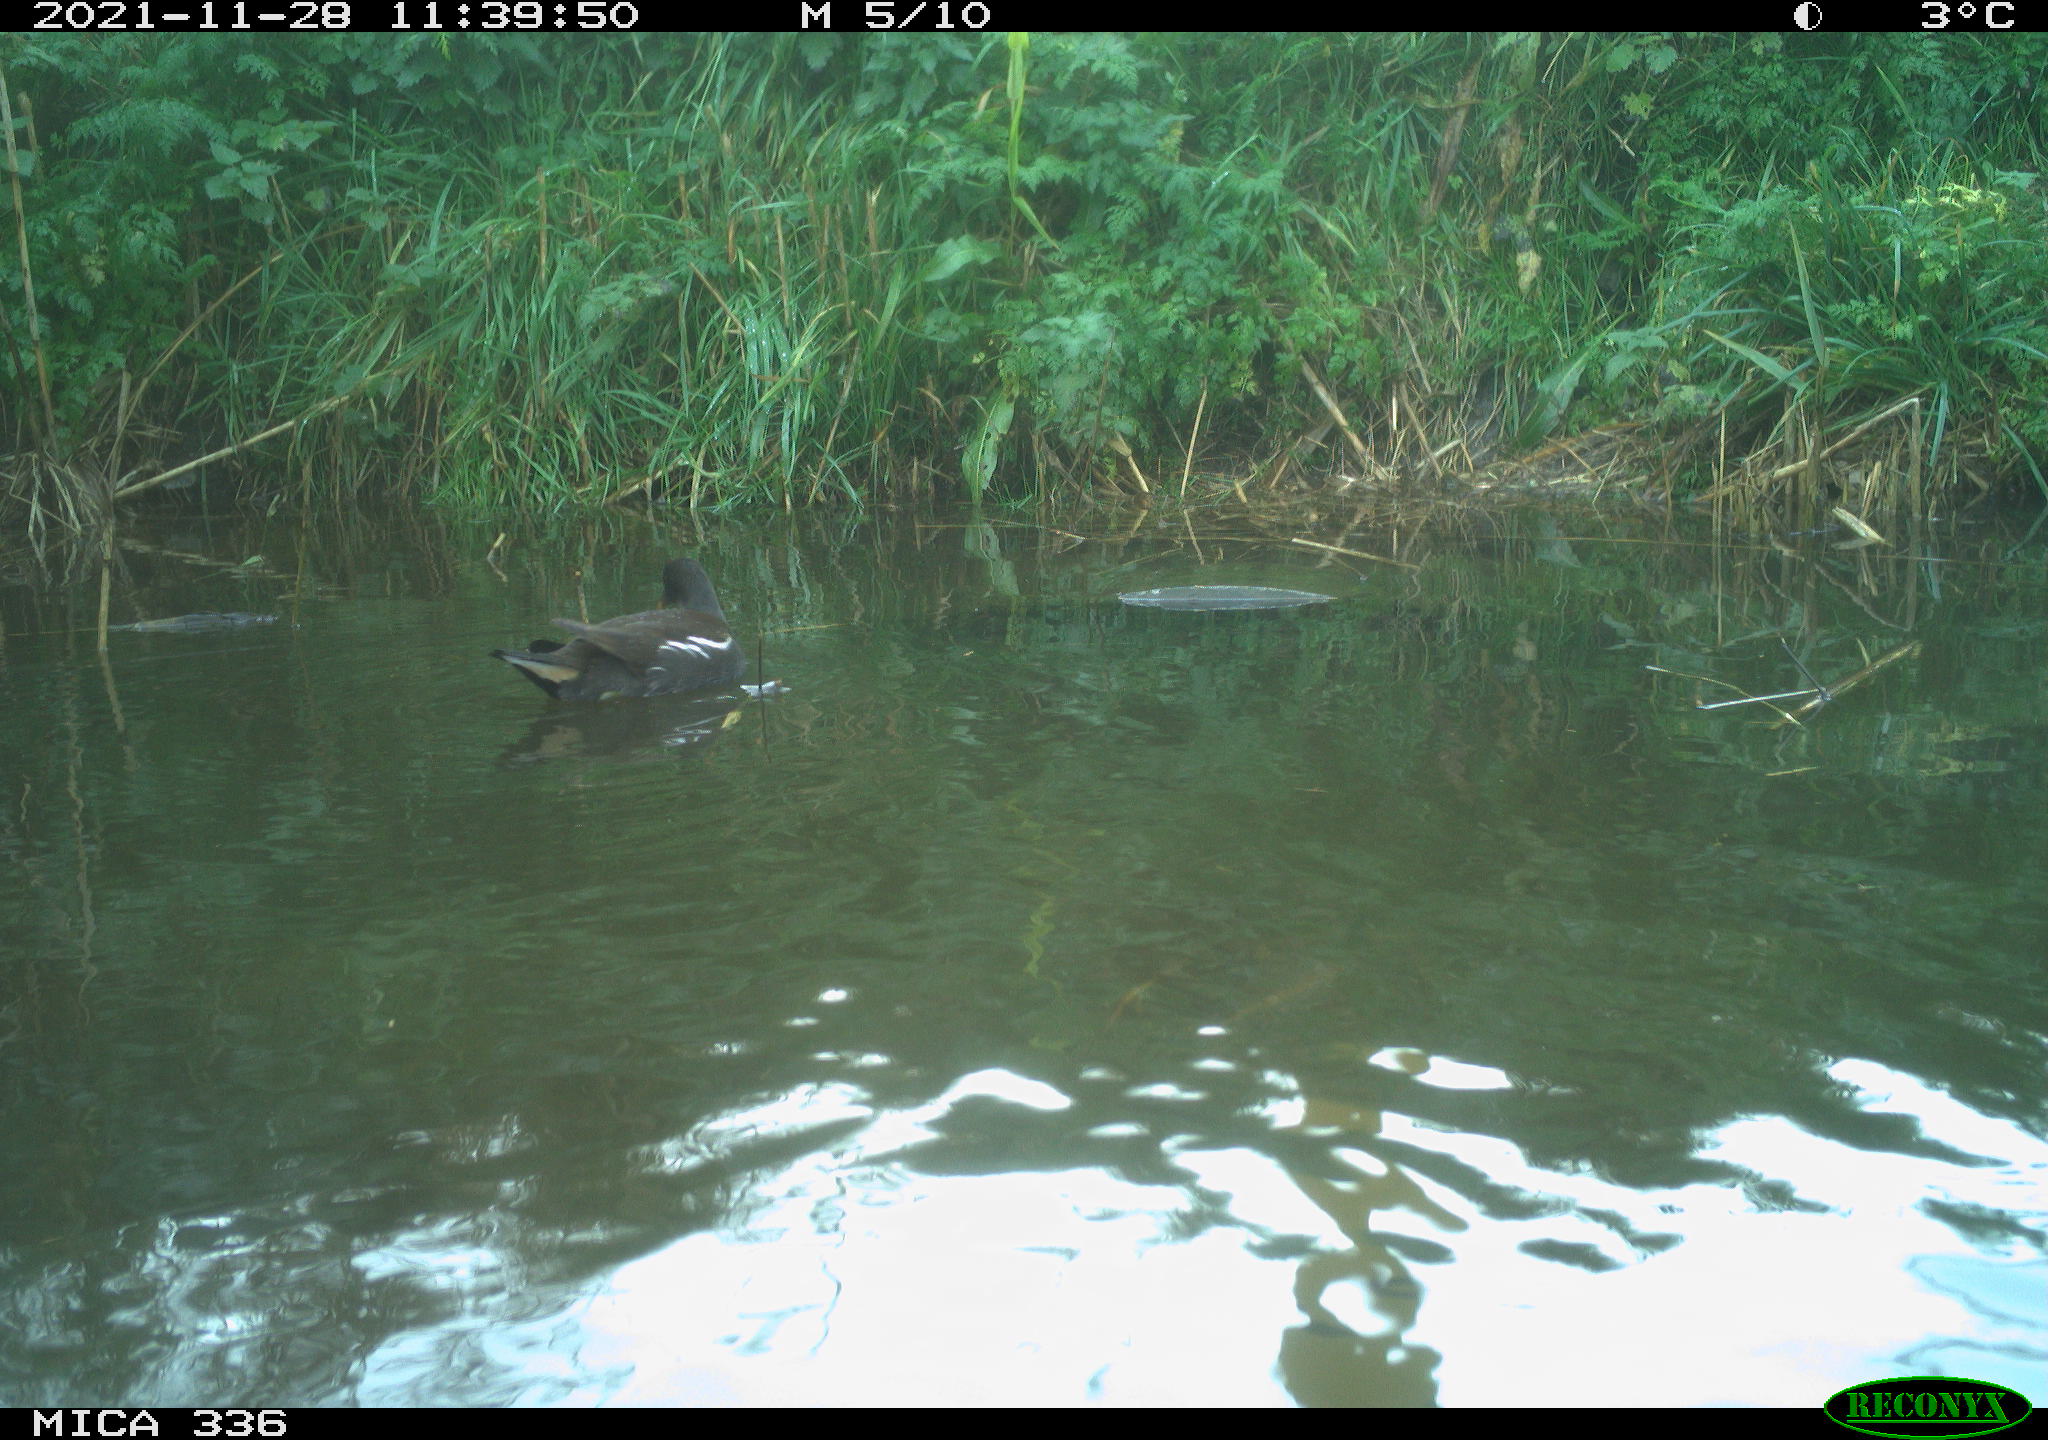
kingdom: Animalia
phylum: Chordata
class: Aves
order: Gruiformes
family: Rallidae
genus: Gallinula
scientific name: Gallinula chloropus
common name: Common moorhen
